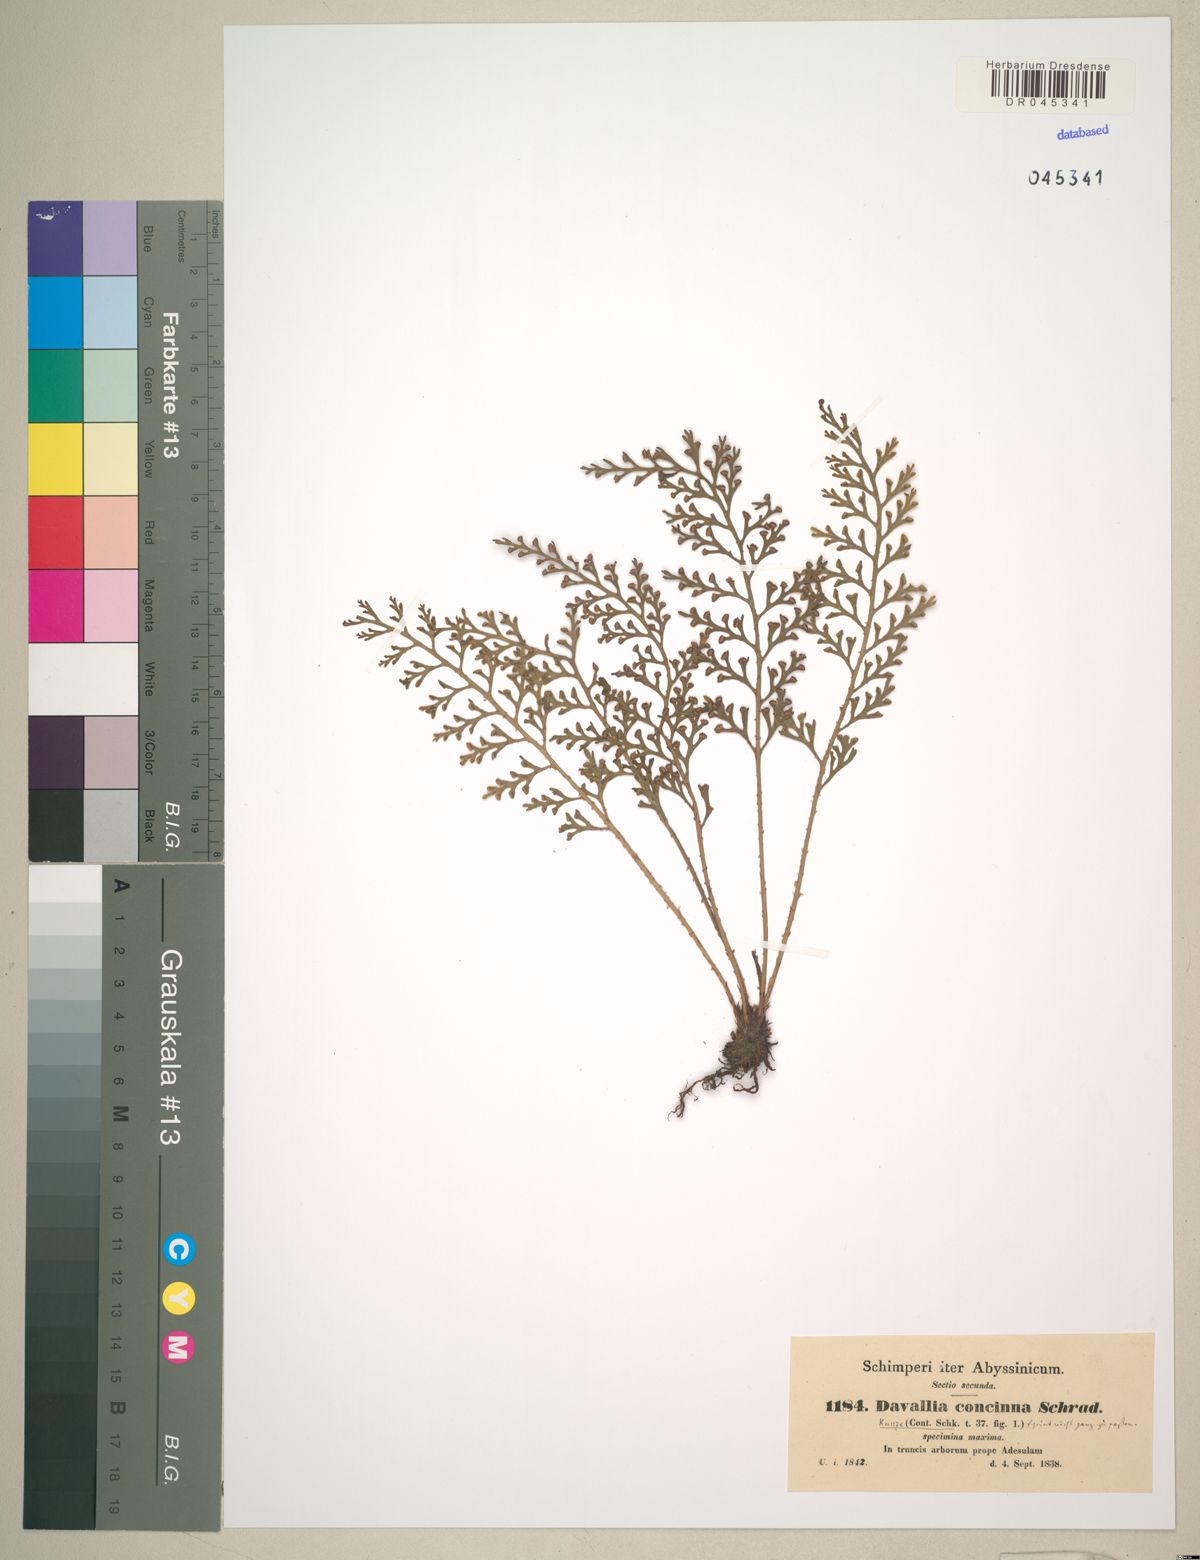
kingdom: Plantae
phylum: Tracheophyta
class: Polypodiopsida
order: Polypodiales
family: Aspleniaceae
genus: Asplenium
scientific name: Asplenium theciferum
